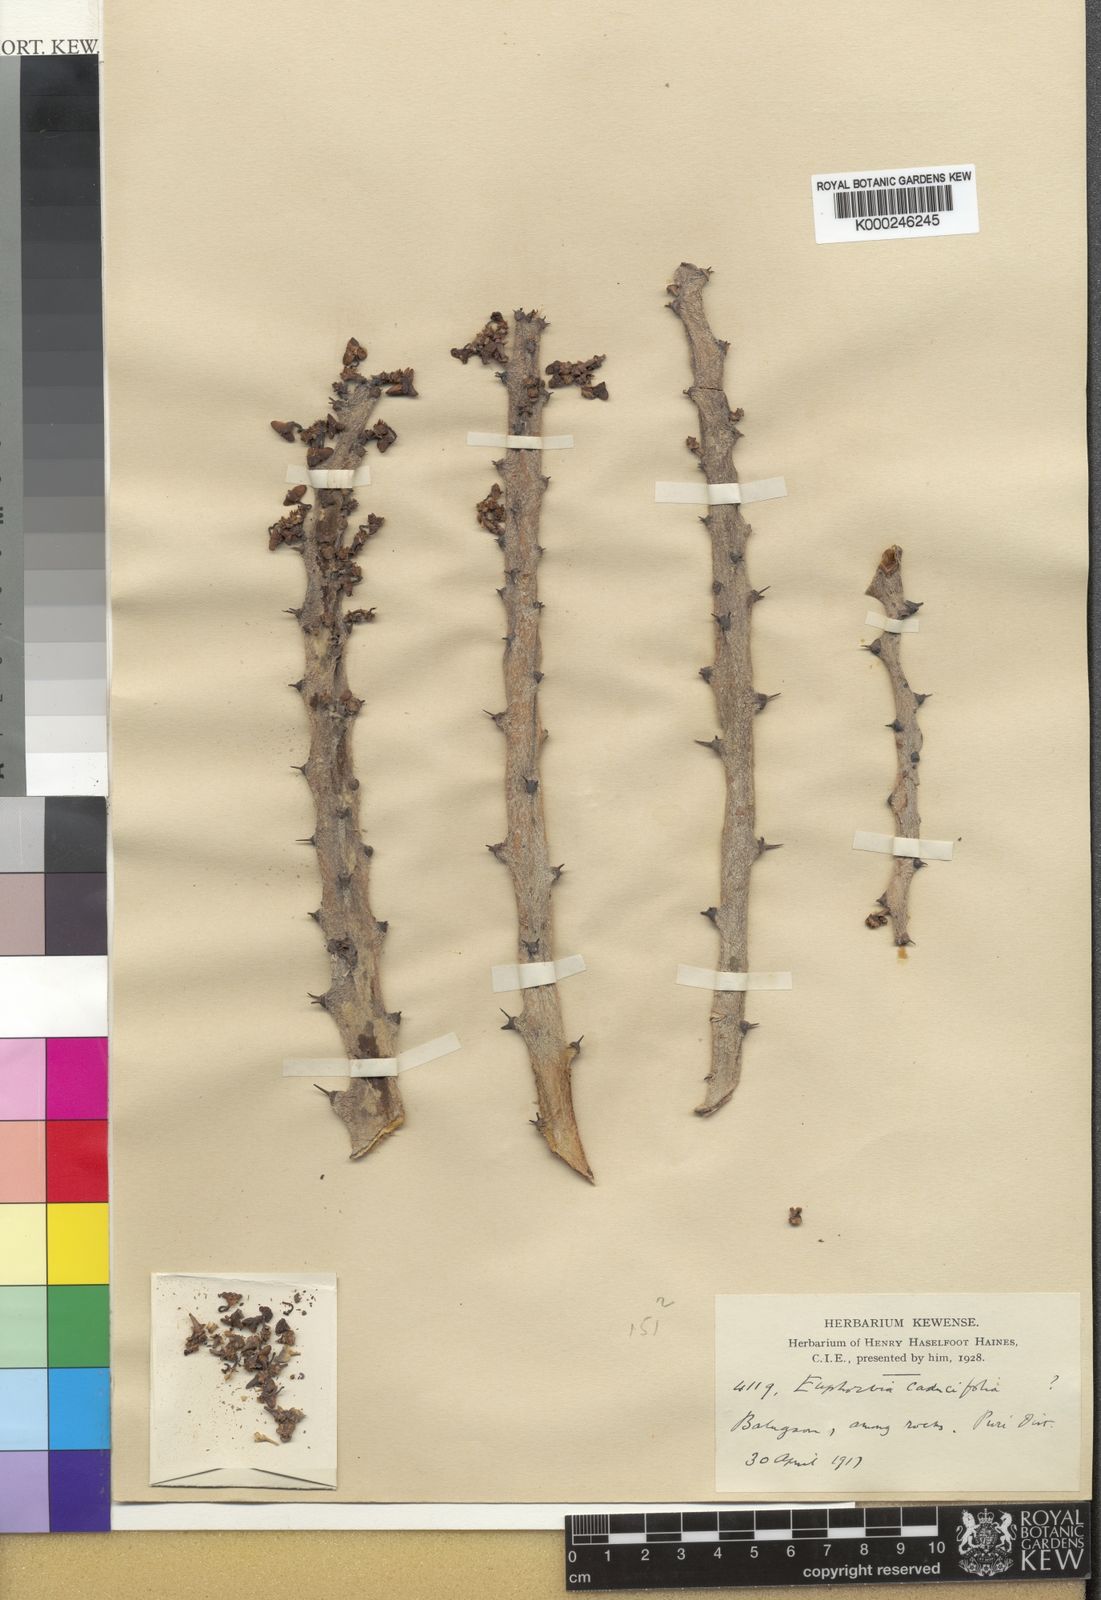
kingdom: Plantae
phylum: Tracheophyta
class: Magnoliopsida
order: Malpighiales
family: Euphorbiaceae
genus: Euphorbia
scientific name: Euphorbia caducifolia
